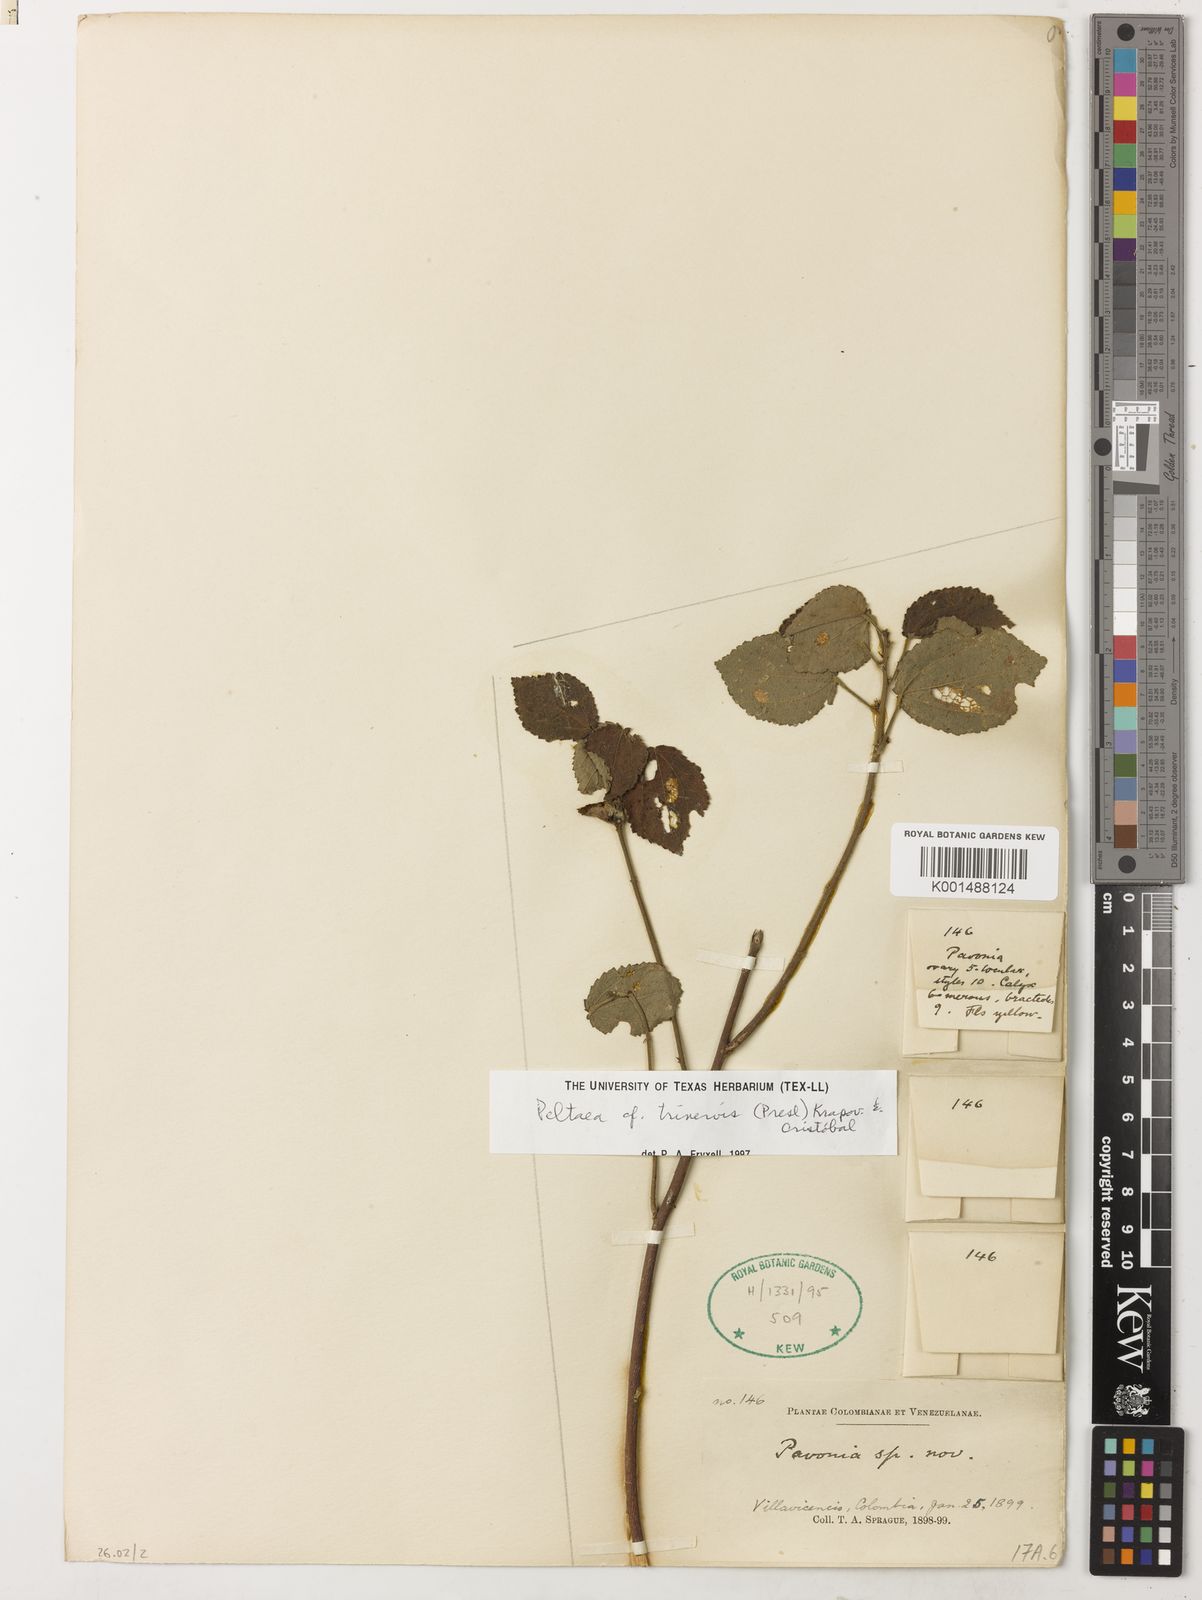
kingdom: Plantae
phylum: Tracheophyta
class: Magnoliopsida
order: Asterales
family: Asteraceae
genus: Leonis
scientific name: Leonis trineura
